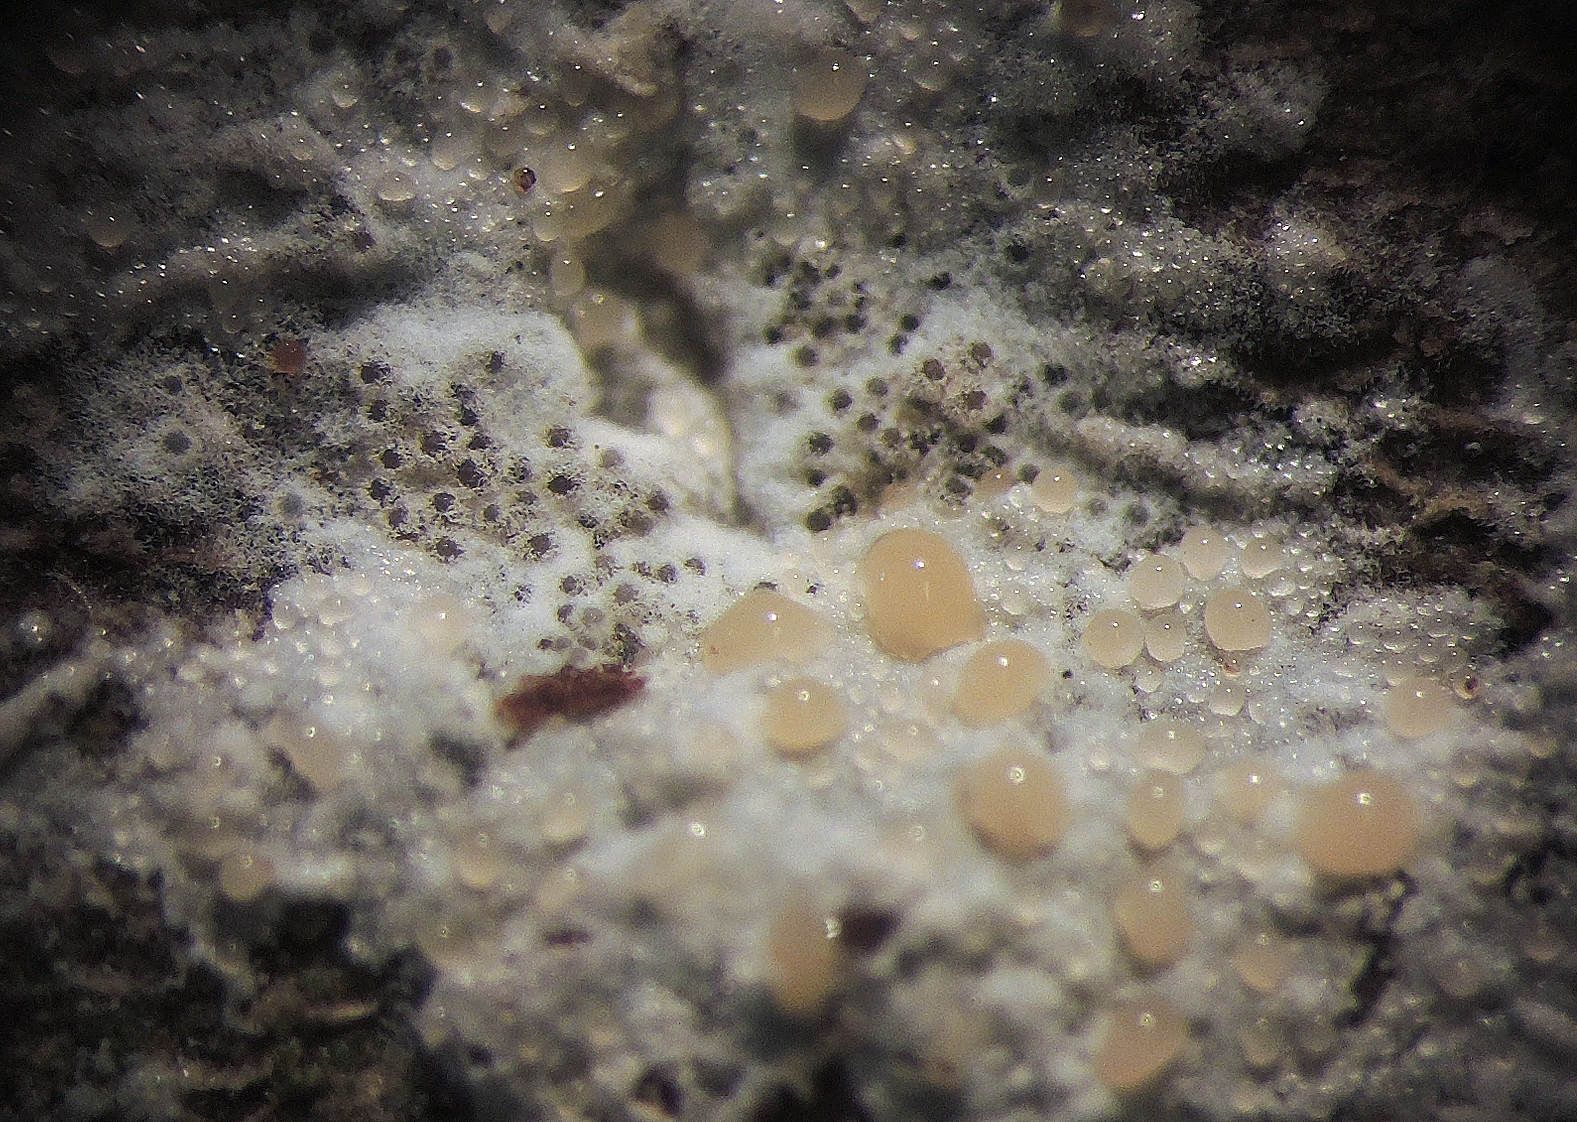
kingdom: Fungi
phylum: Ascomycota
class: Sordariomycetes
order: Hypocreales
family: Bionectriaceae
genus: Nectriopsis
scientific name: Nectriopsis oropensoides
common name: mørkøjet snyltespind
